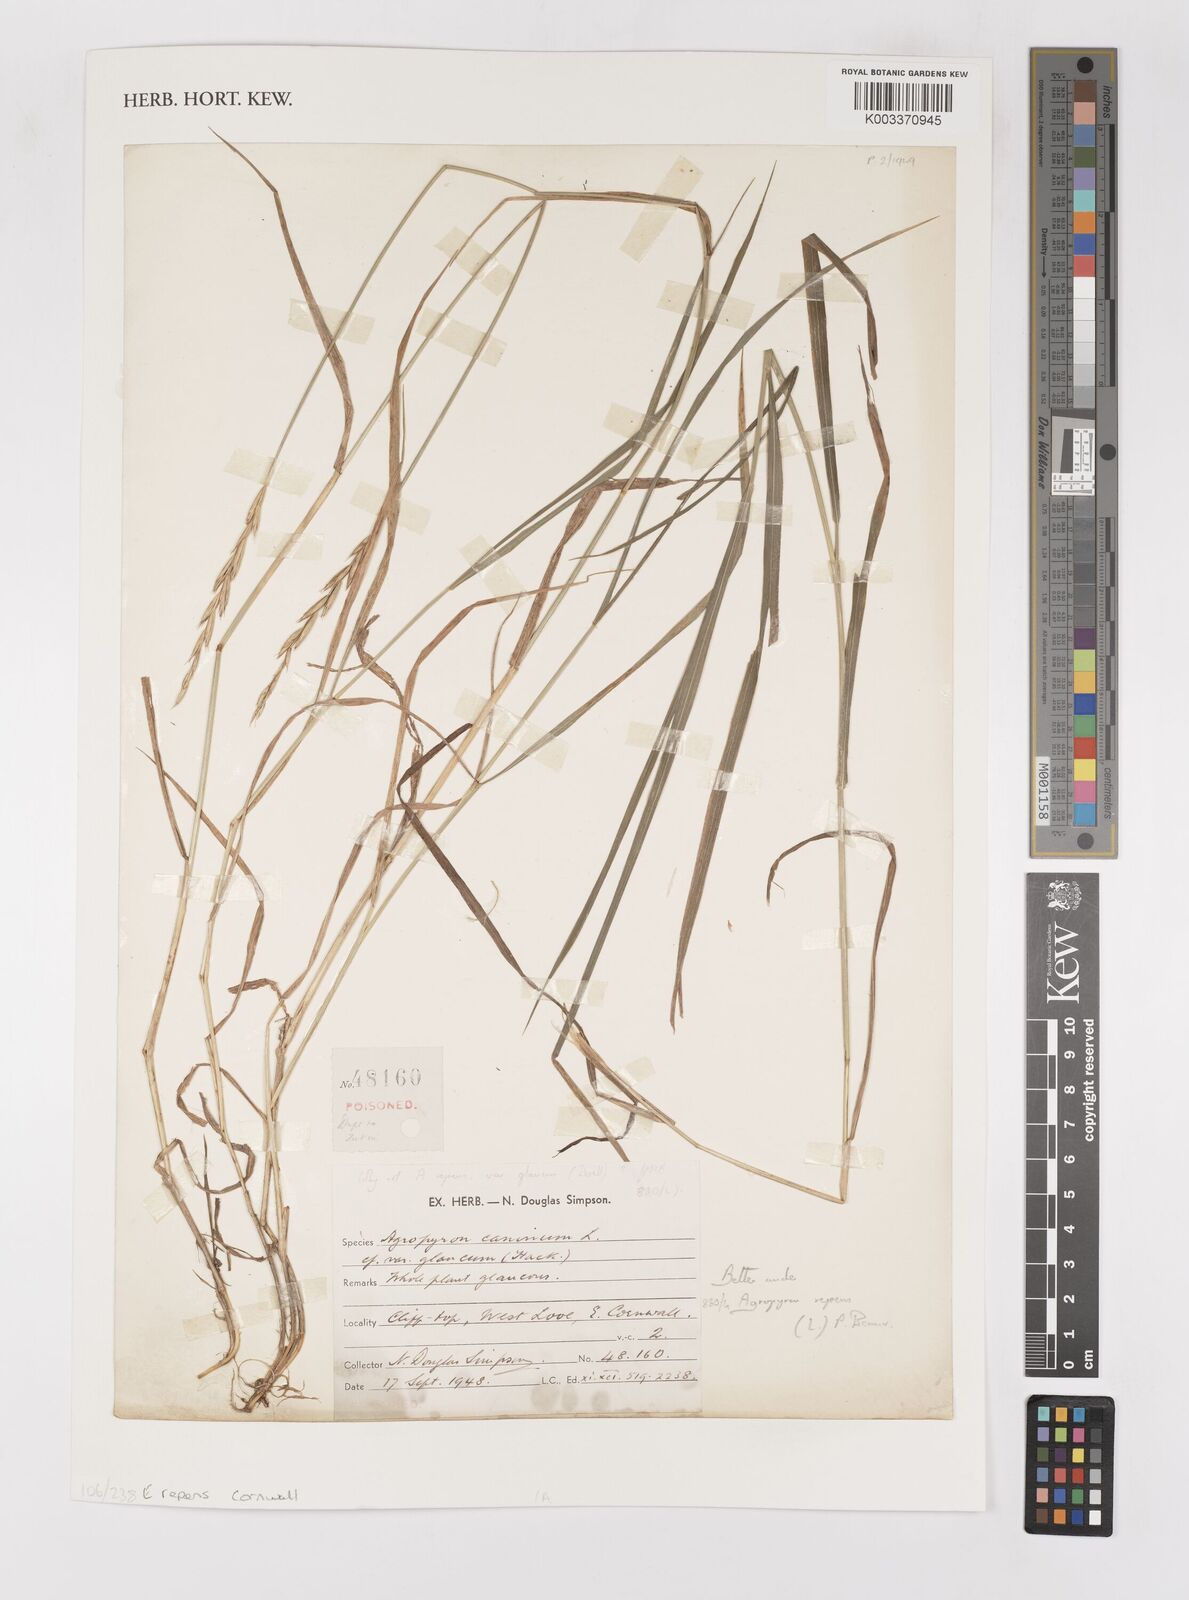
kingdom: Plantae
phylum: Tracheophyta
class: Liliopsida
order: Poales
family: Poaceae
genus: Elymus
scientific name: Elymus repens
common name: Quackgrass
